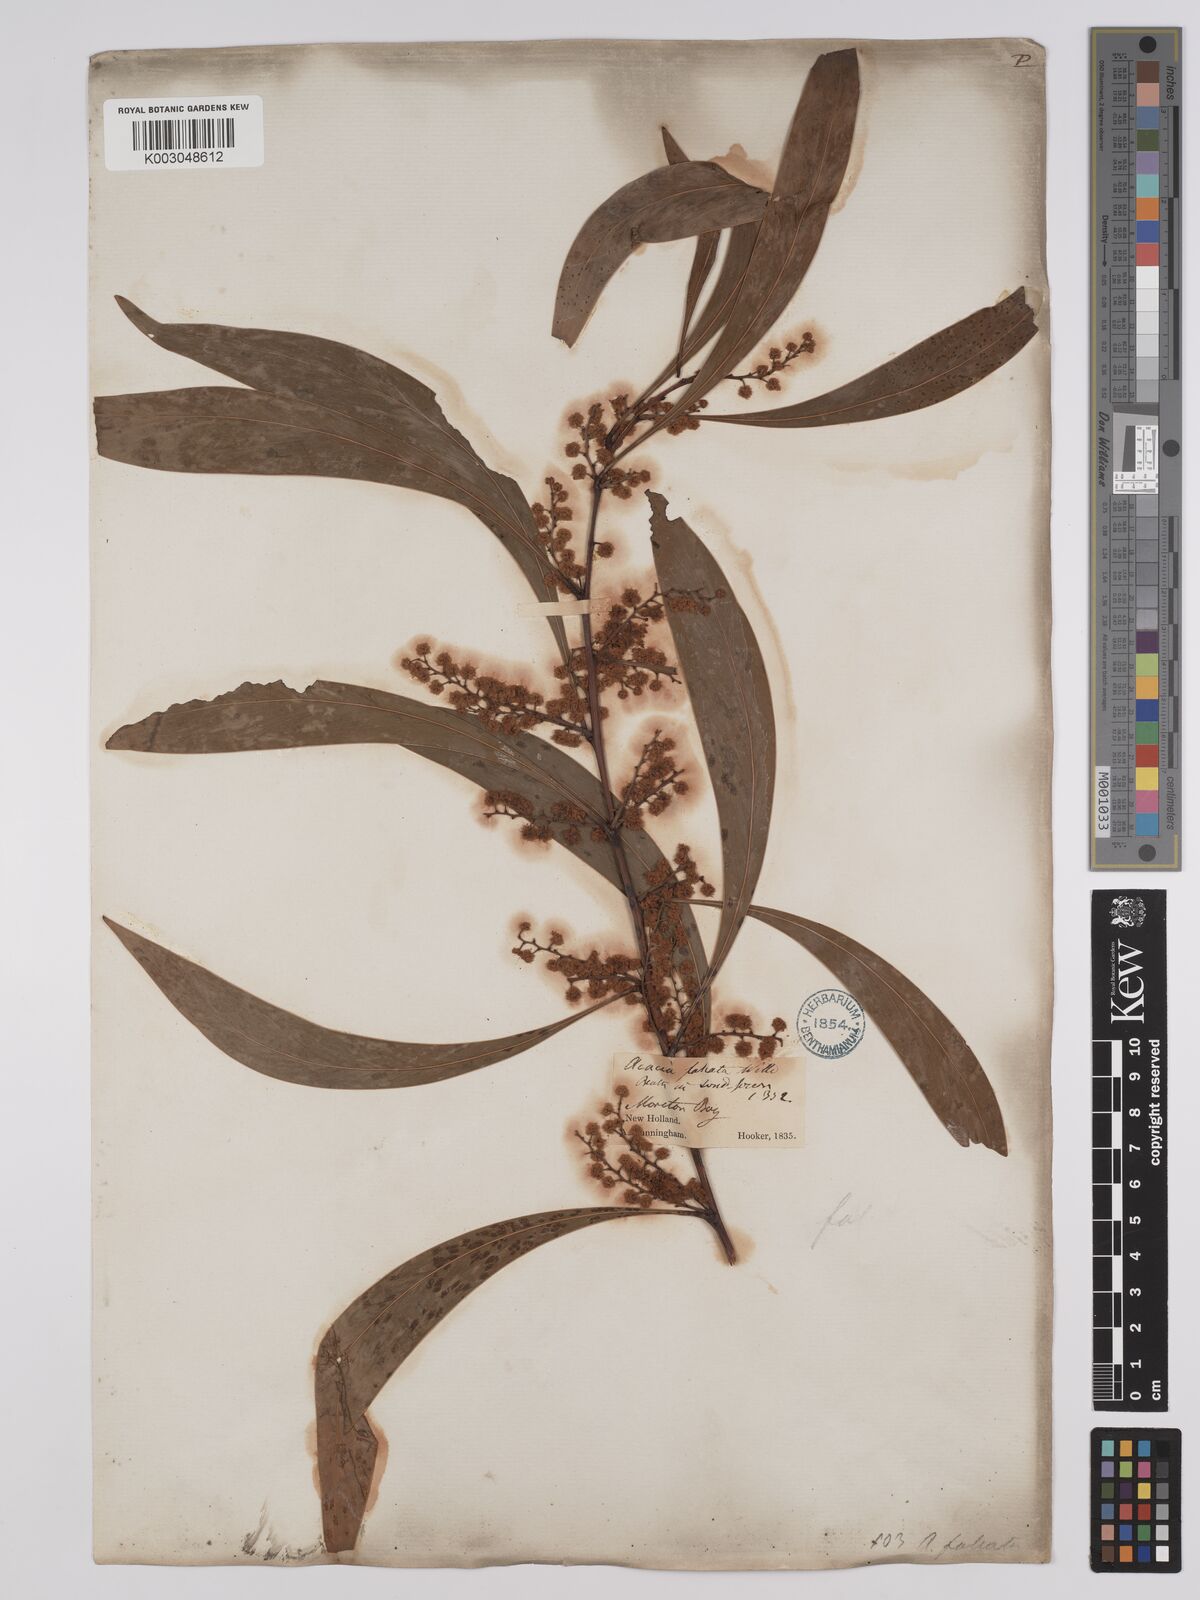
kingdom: Plantae
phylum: Tracheophyta
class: Magnoliopsida
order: Fabales
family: Fabaceae
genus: Acacia
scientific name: Acacia falcata
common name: Burra acacia
